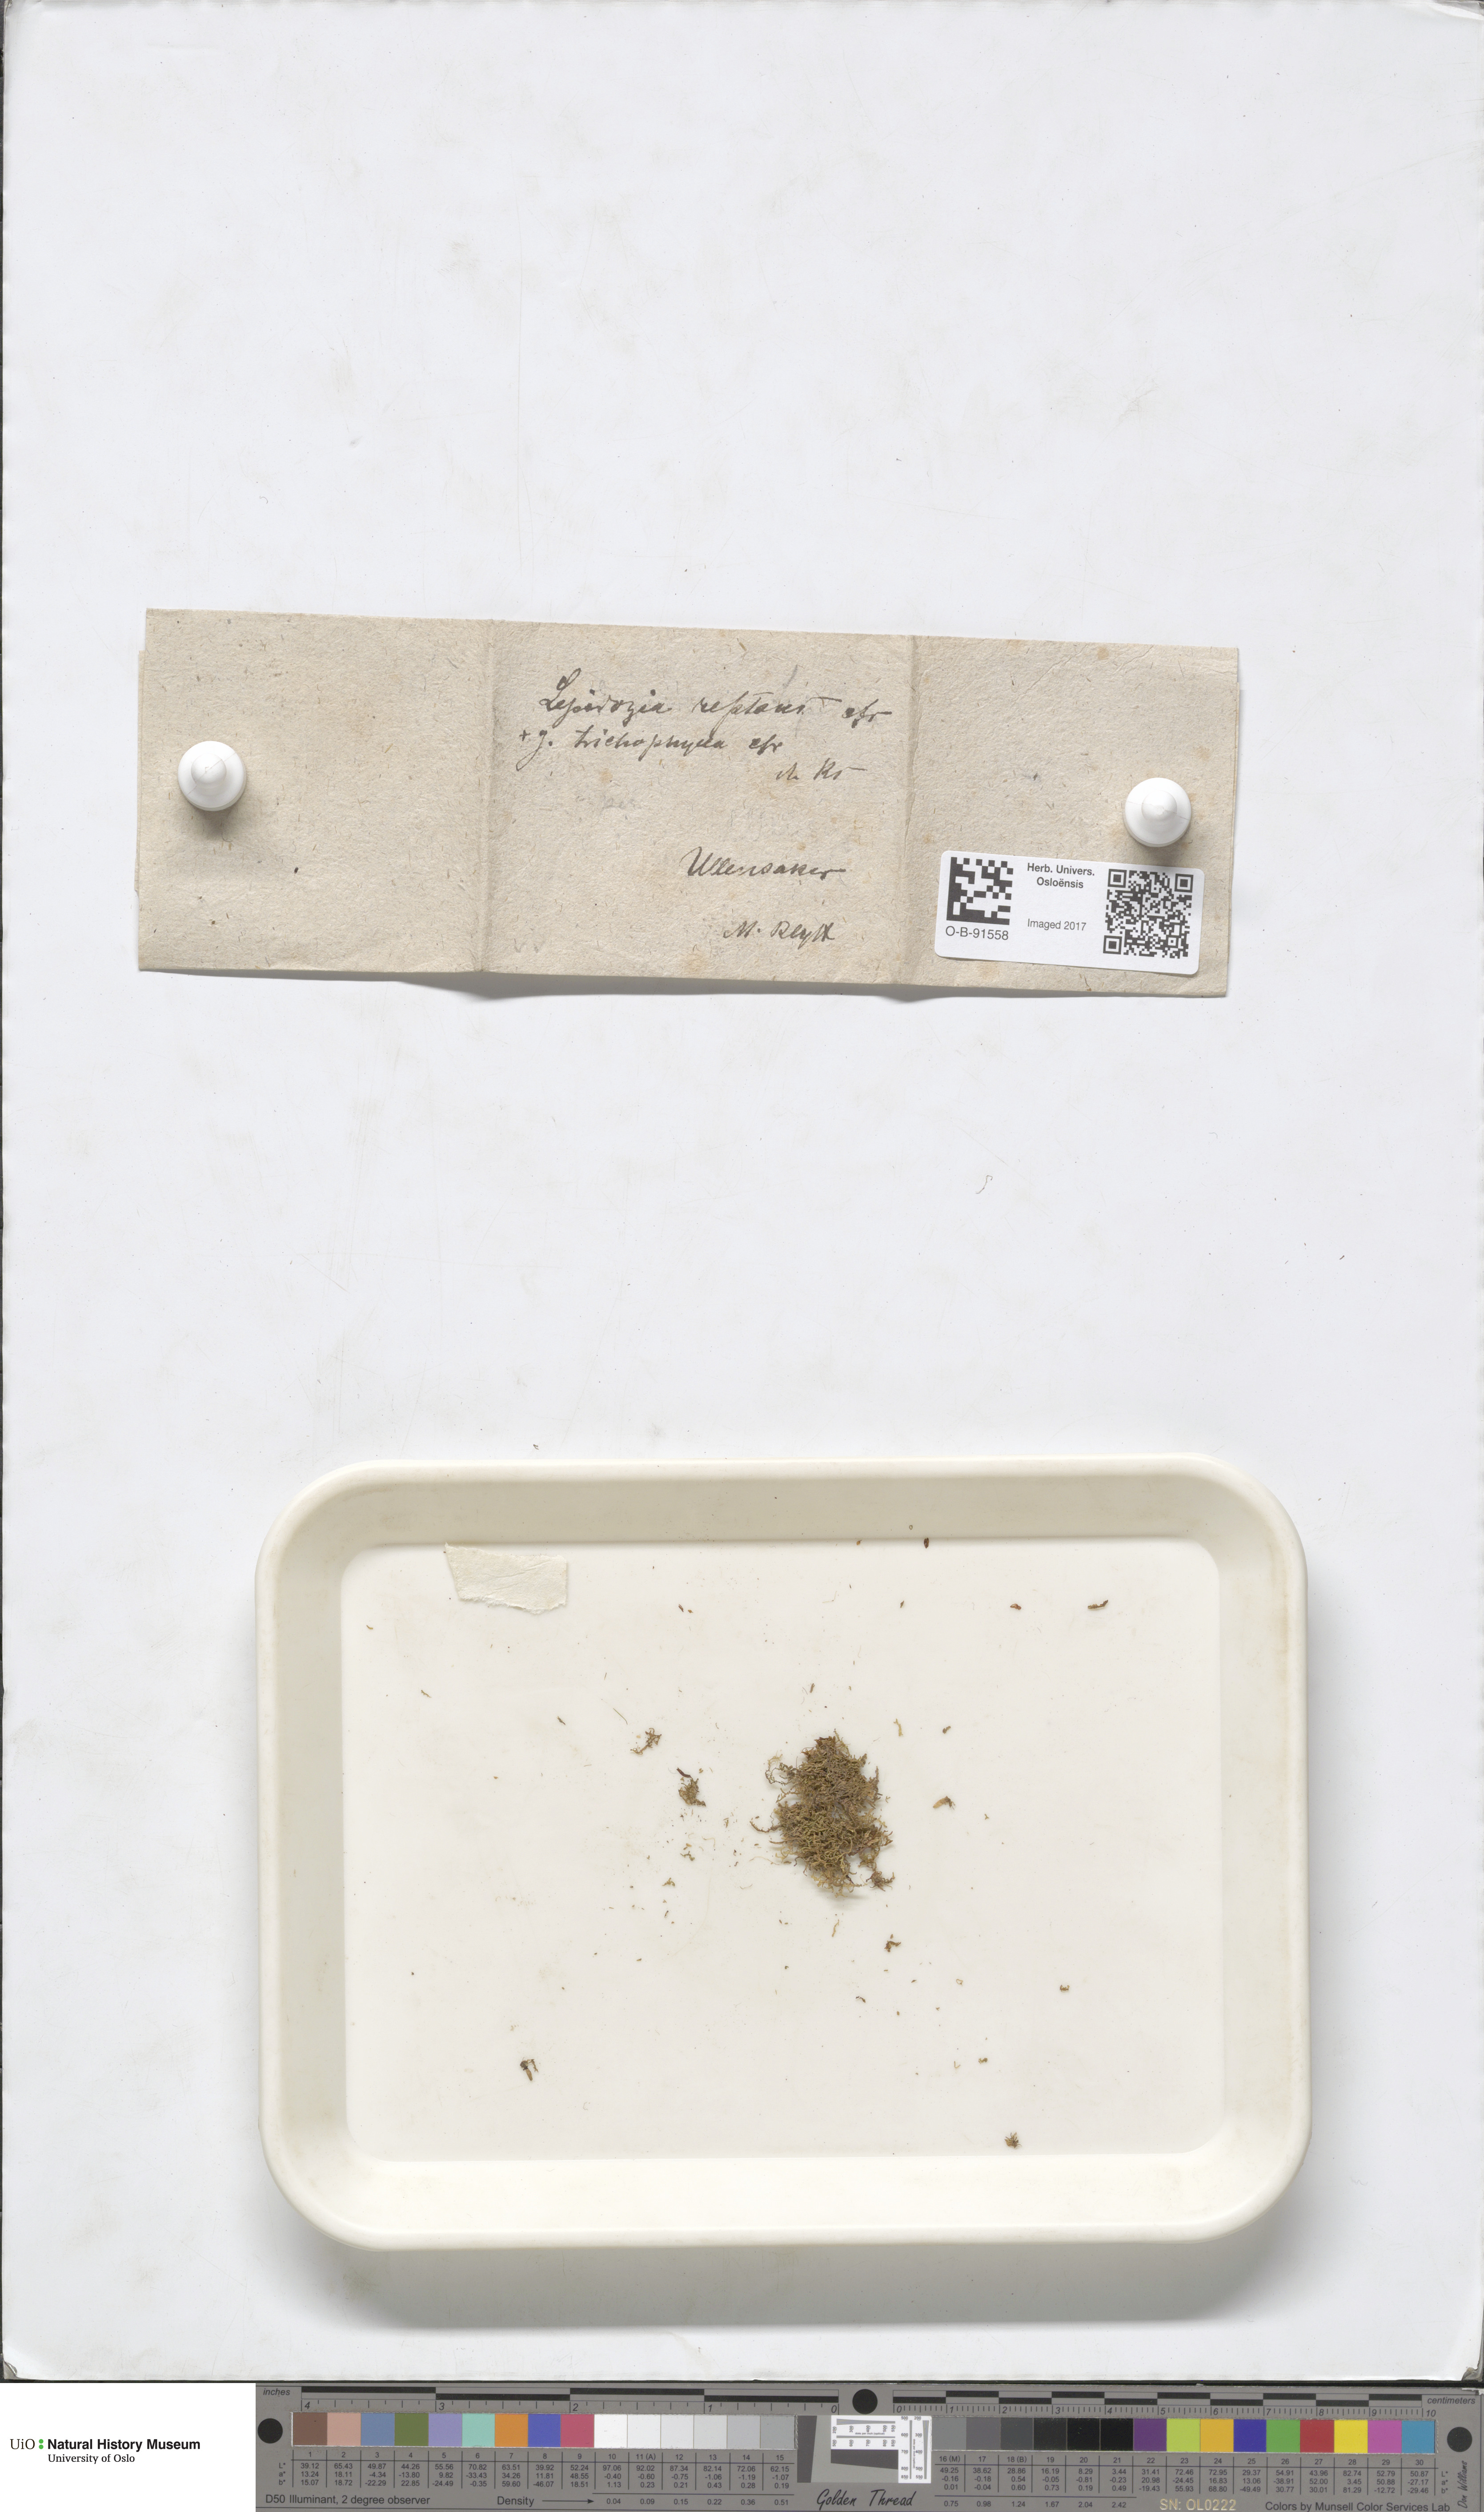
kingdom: Plantae
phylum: Marchantiophyta
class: Jungermanniopsida
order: Jungermanniales
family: Lepidoziaceae
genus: Lepidozia
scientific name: Lepidozia reptans
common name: Creeping fingerwort
